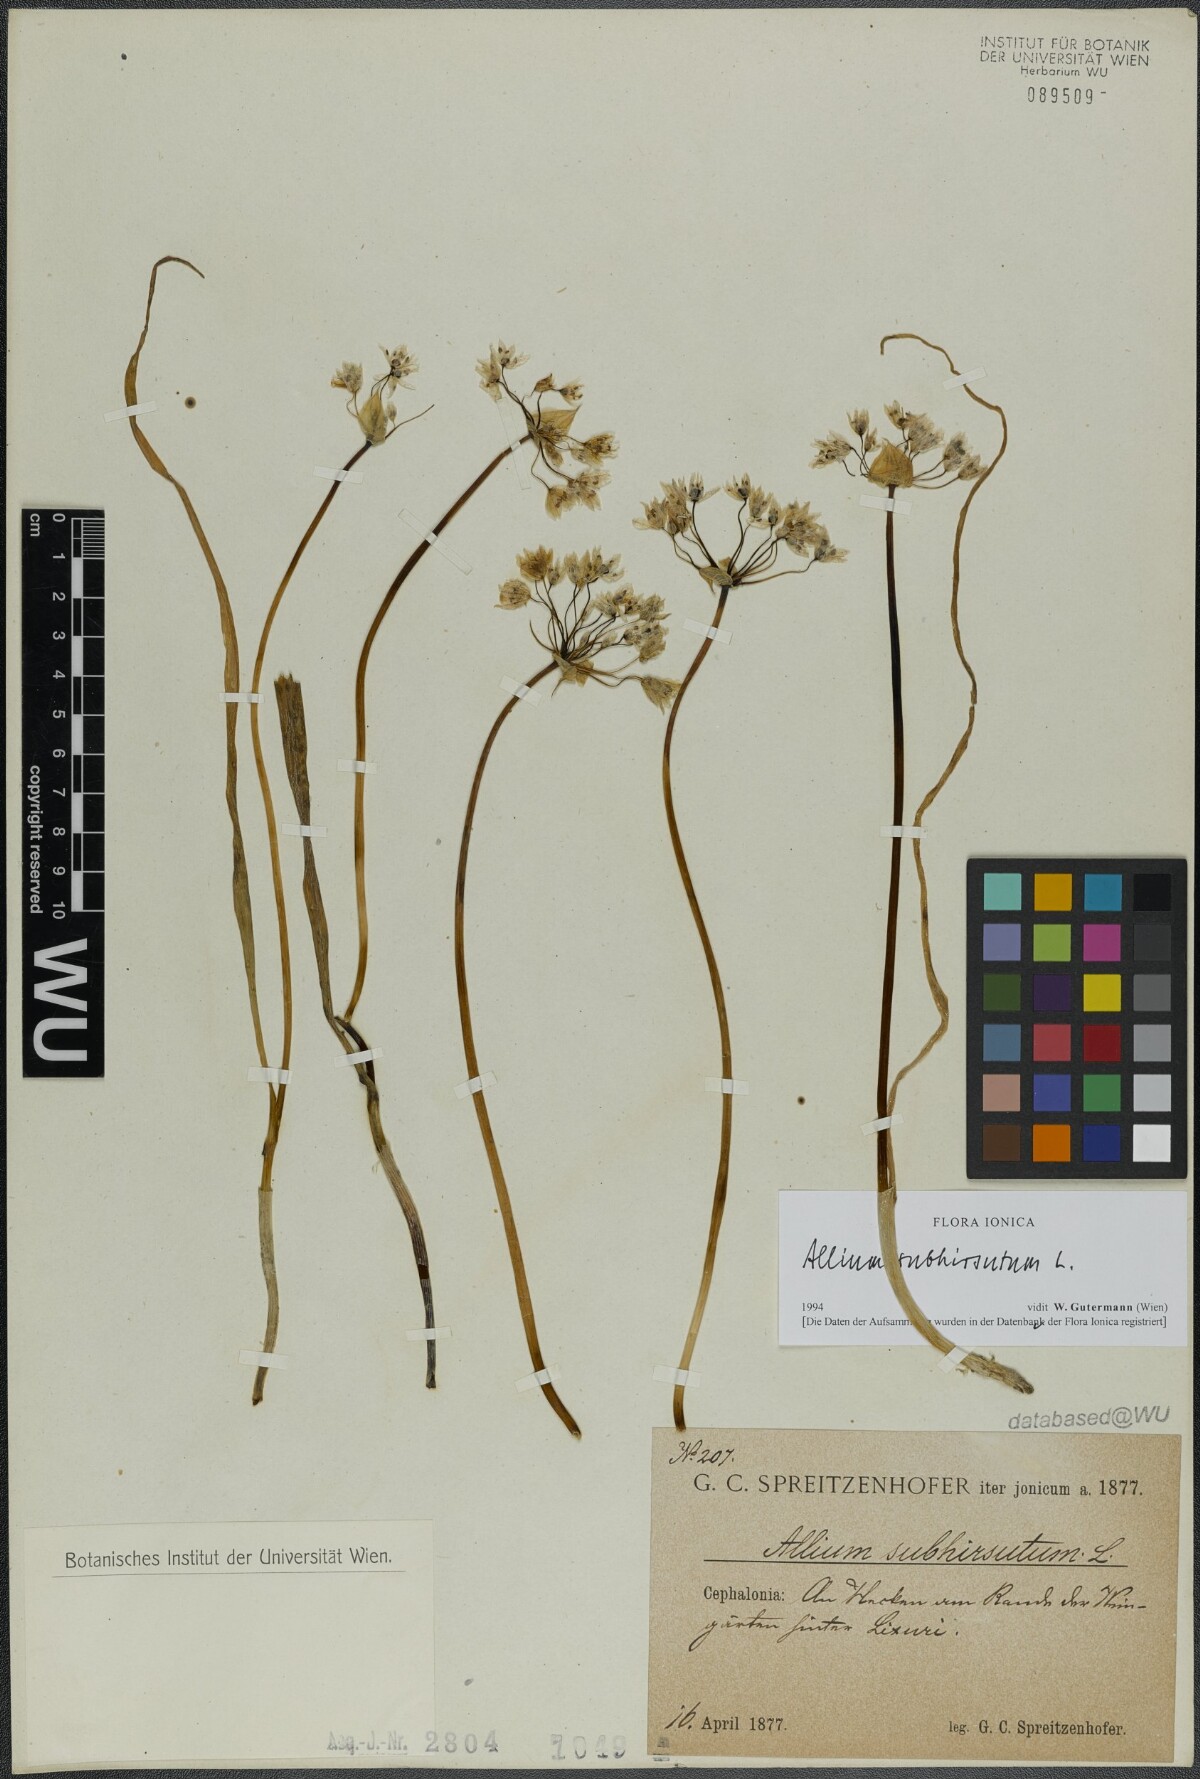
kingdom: Plantae
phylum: Tracheophyta
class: Liliopsida
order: Asparagales
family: Amaryllidaceae
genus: Allium
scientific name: Allium subhirsutum
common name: Hairy garlic
